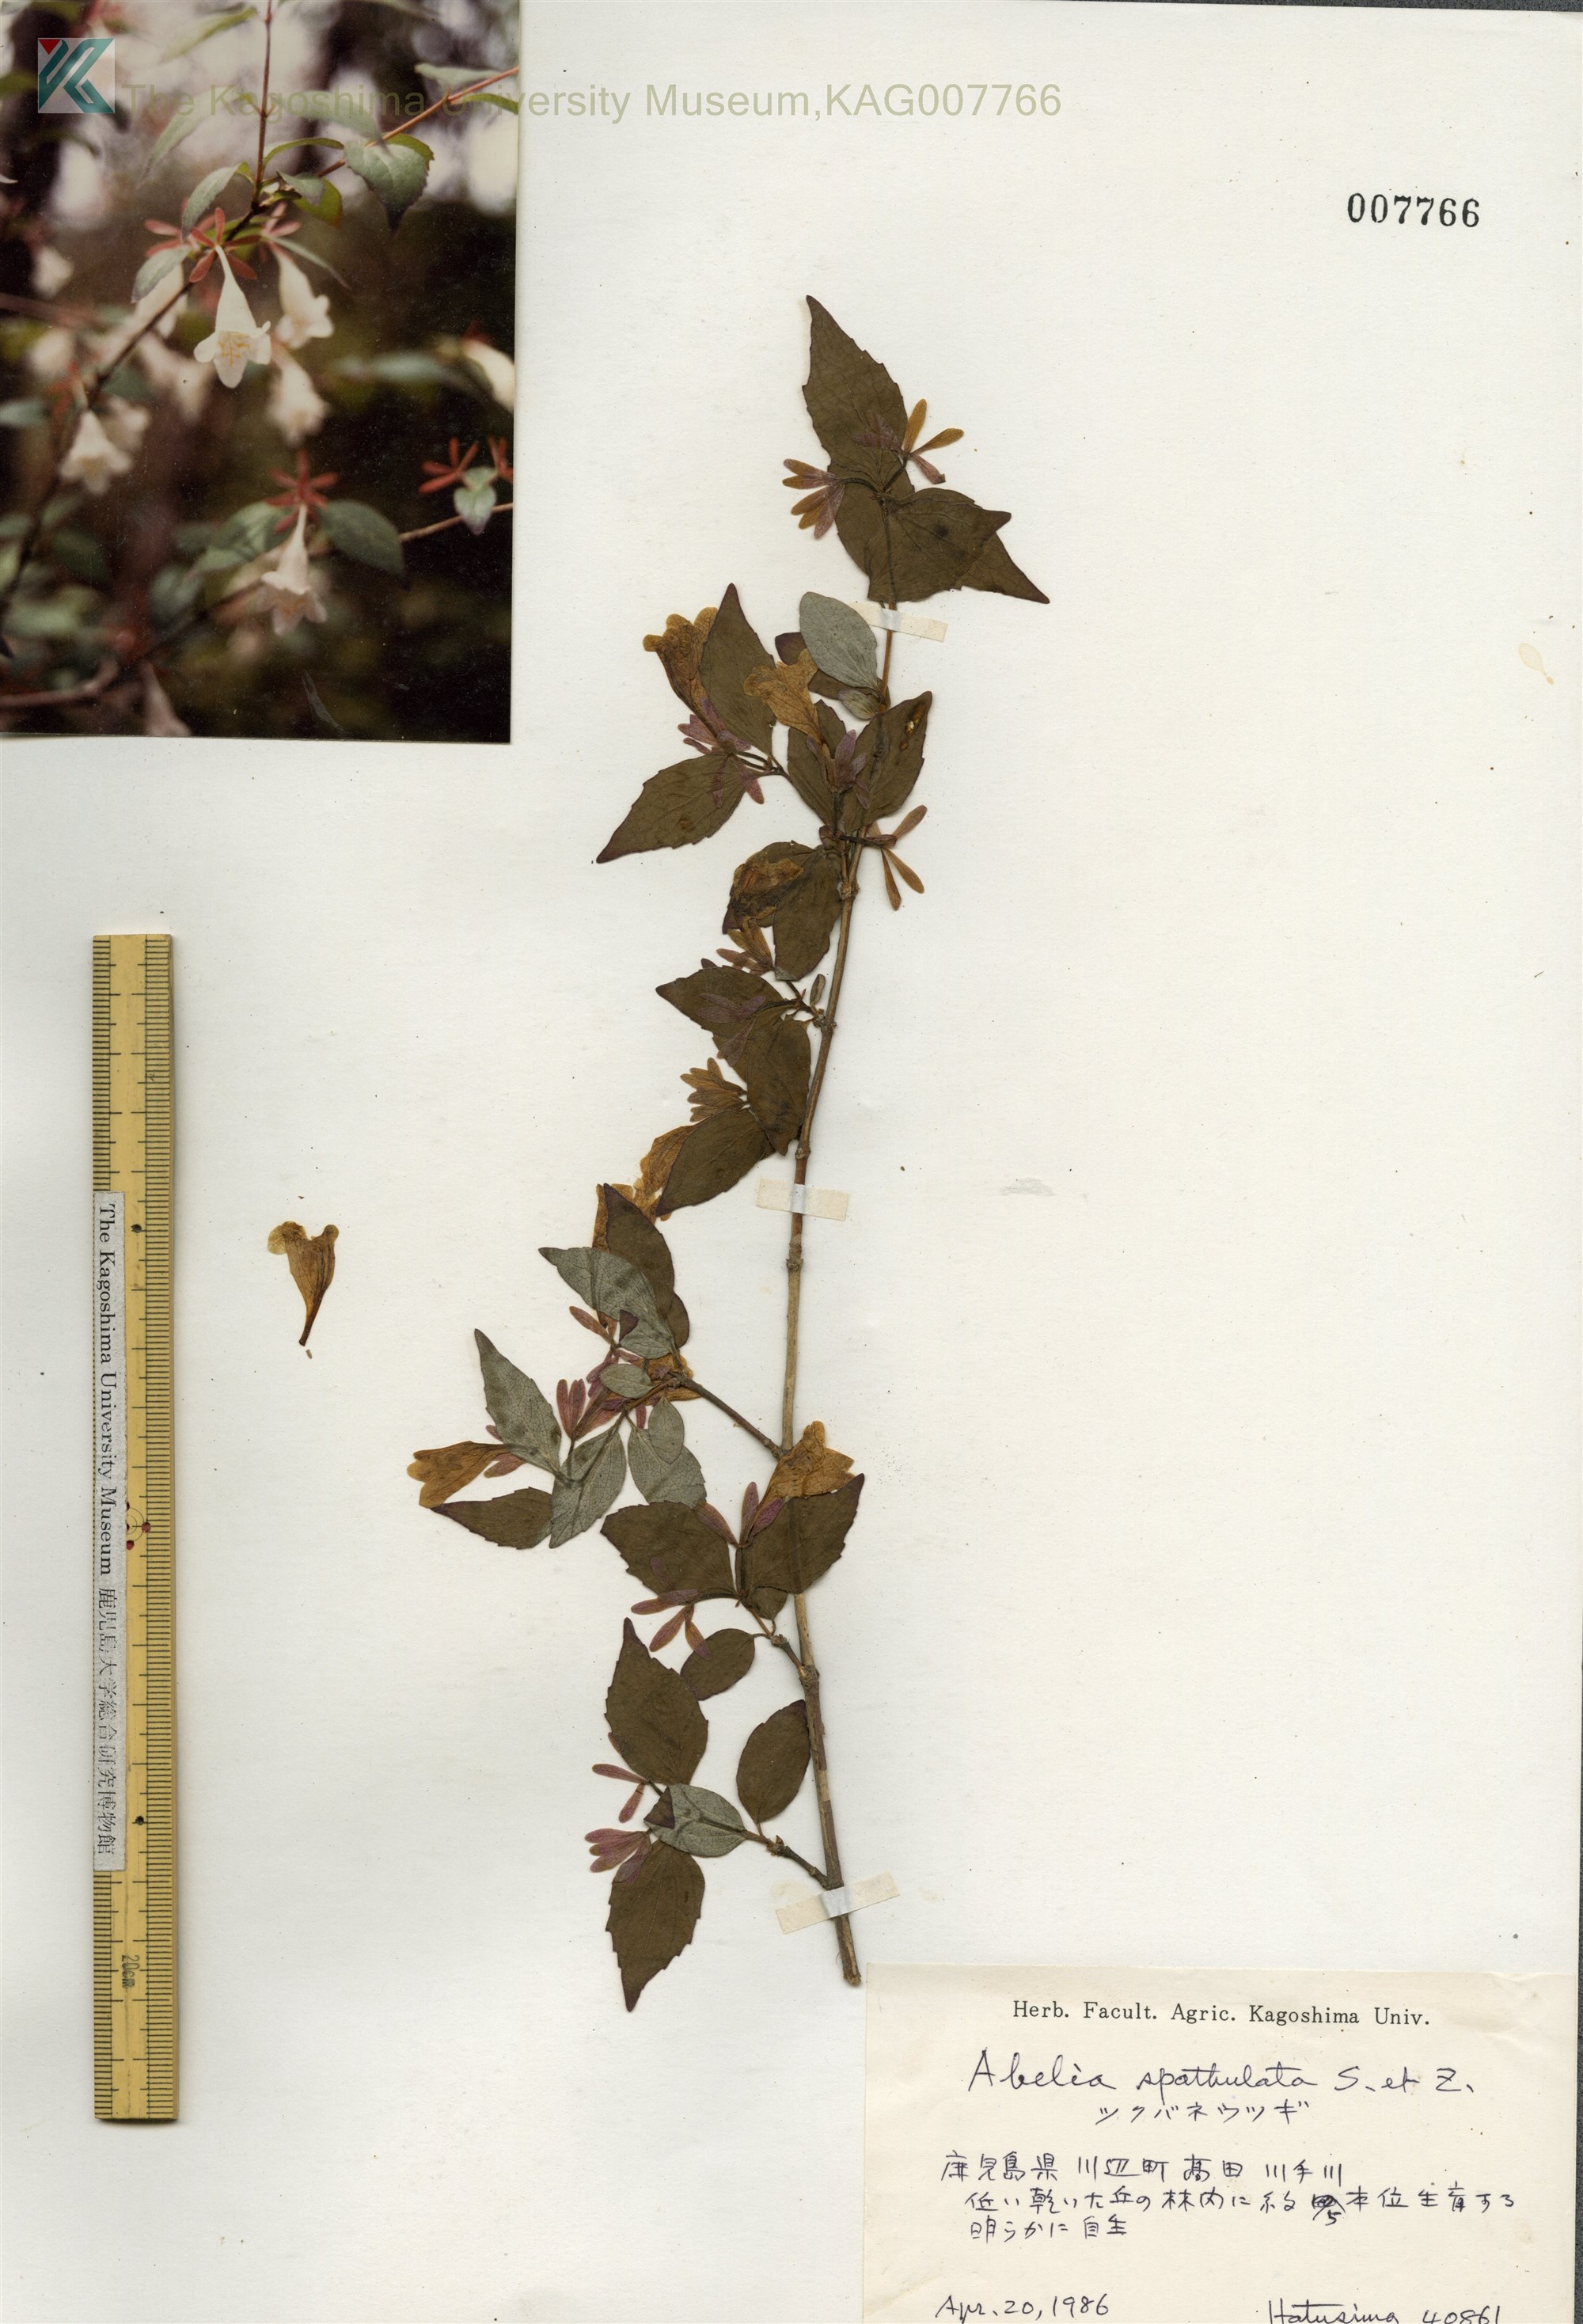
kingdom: Plantae
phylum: Tracheophyta
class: Magnoliopsida
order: Dipsacales
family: Caprifoliaceae
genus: Diabelia
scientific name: Diabelia spathulata
